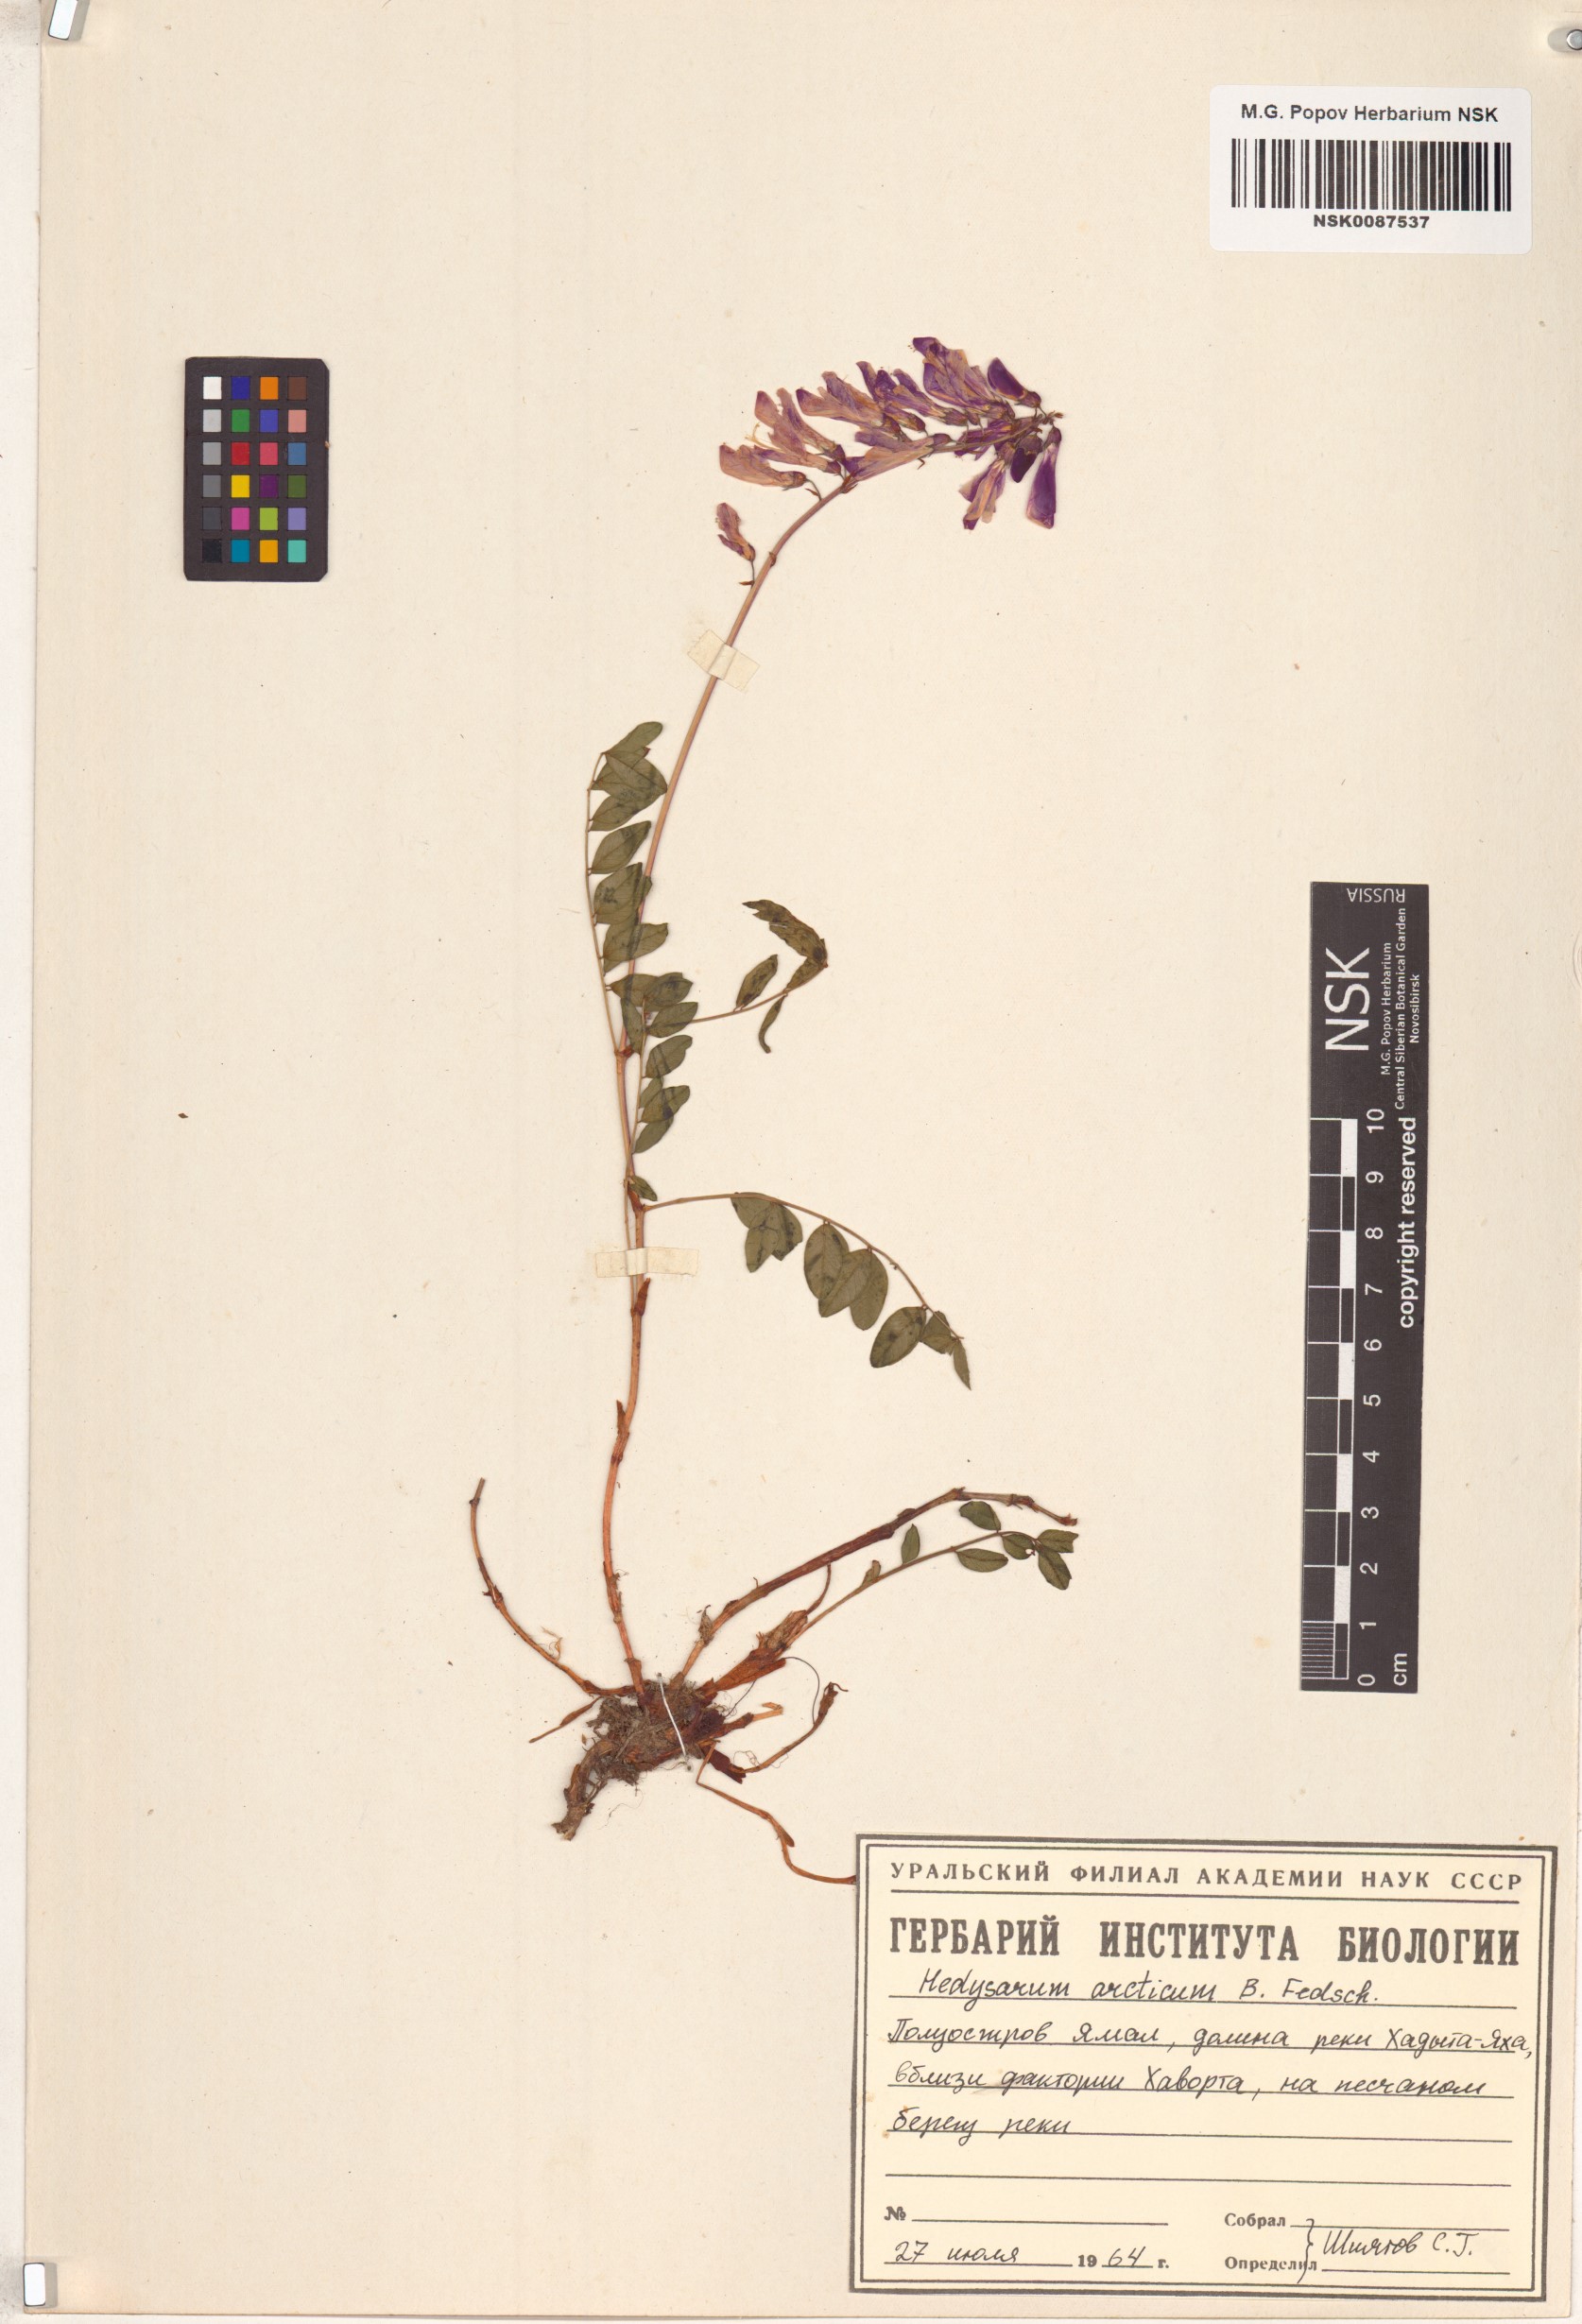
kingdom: Plantae
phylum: Tracheophyta
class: Magnoliopsida
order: Fabales
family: Fabaceae
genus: Hedysarum
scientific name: Hedysarum hedysaroides
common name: Alpine french-honeysuckle
